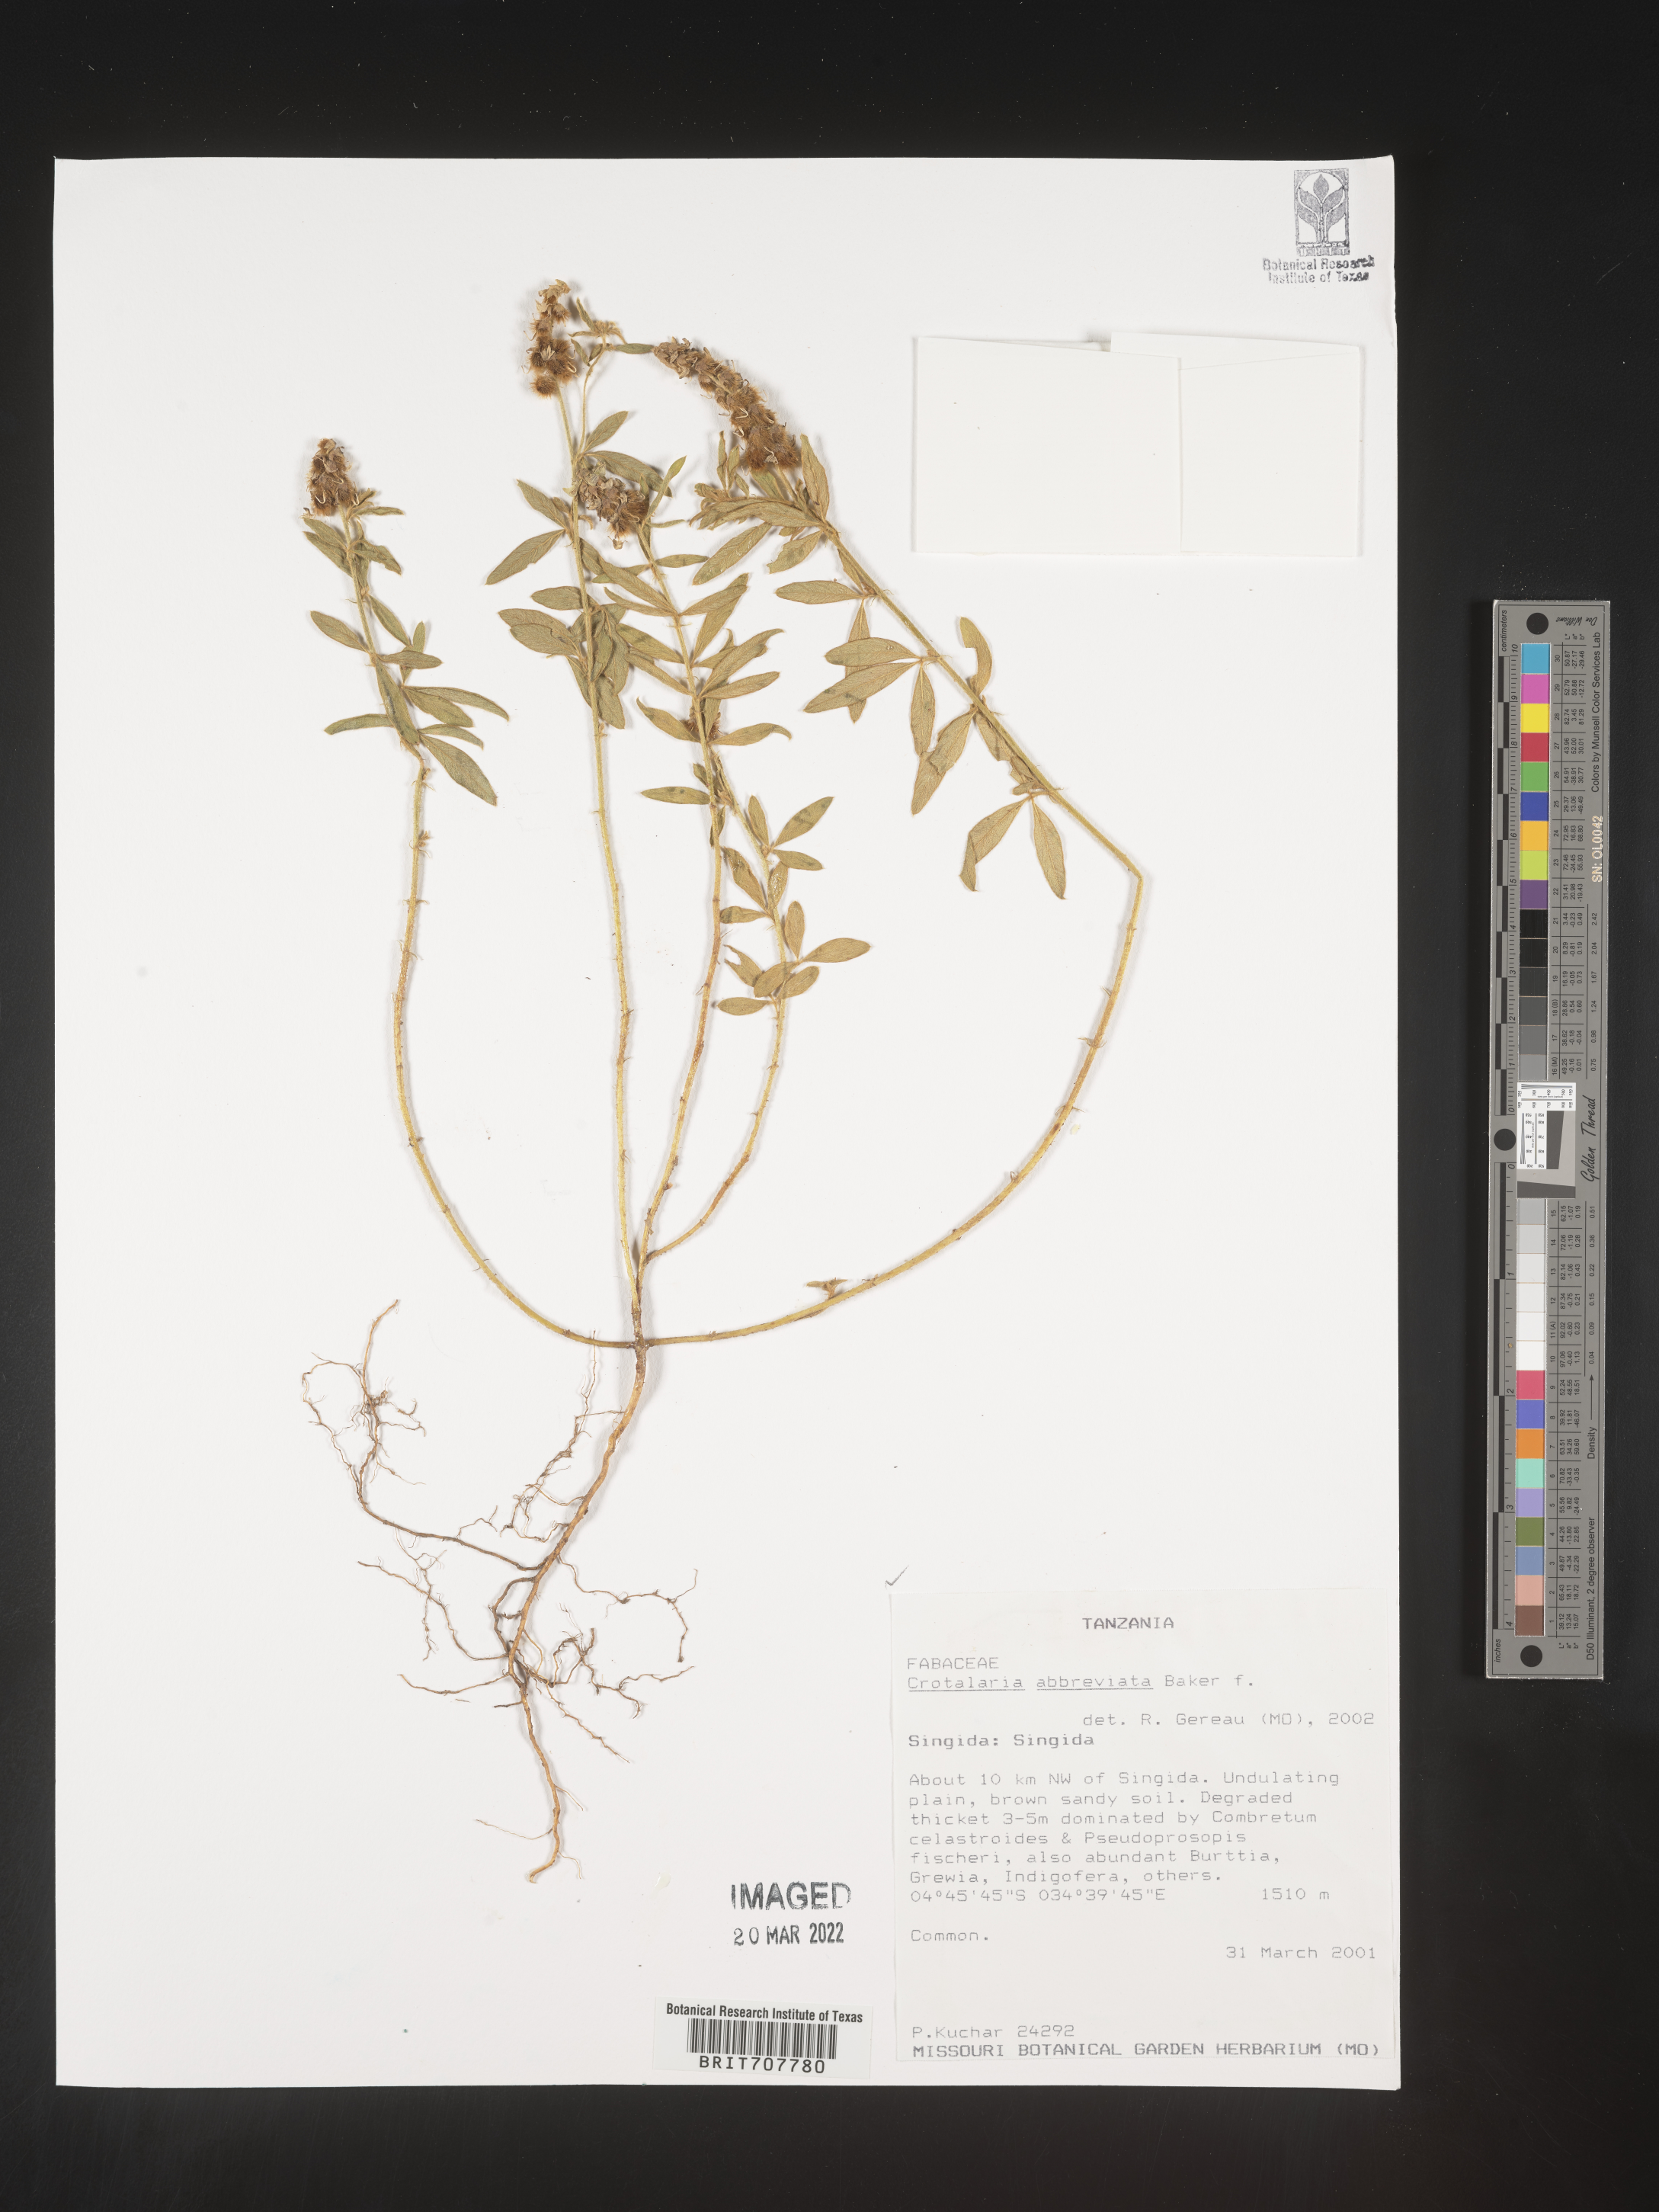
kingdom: Plantae
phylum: Tracheophyta
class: Magnoliopsida
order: Fabales
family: Fabaceae
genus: Crotalaria
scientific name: Crotalaria
